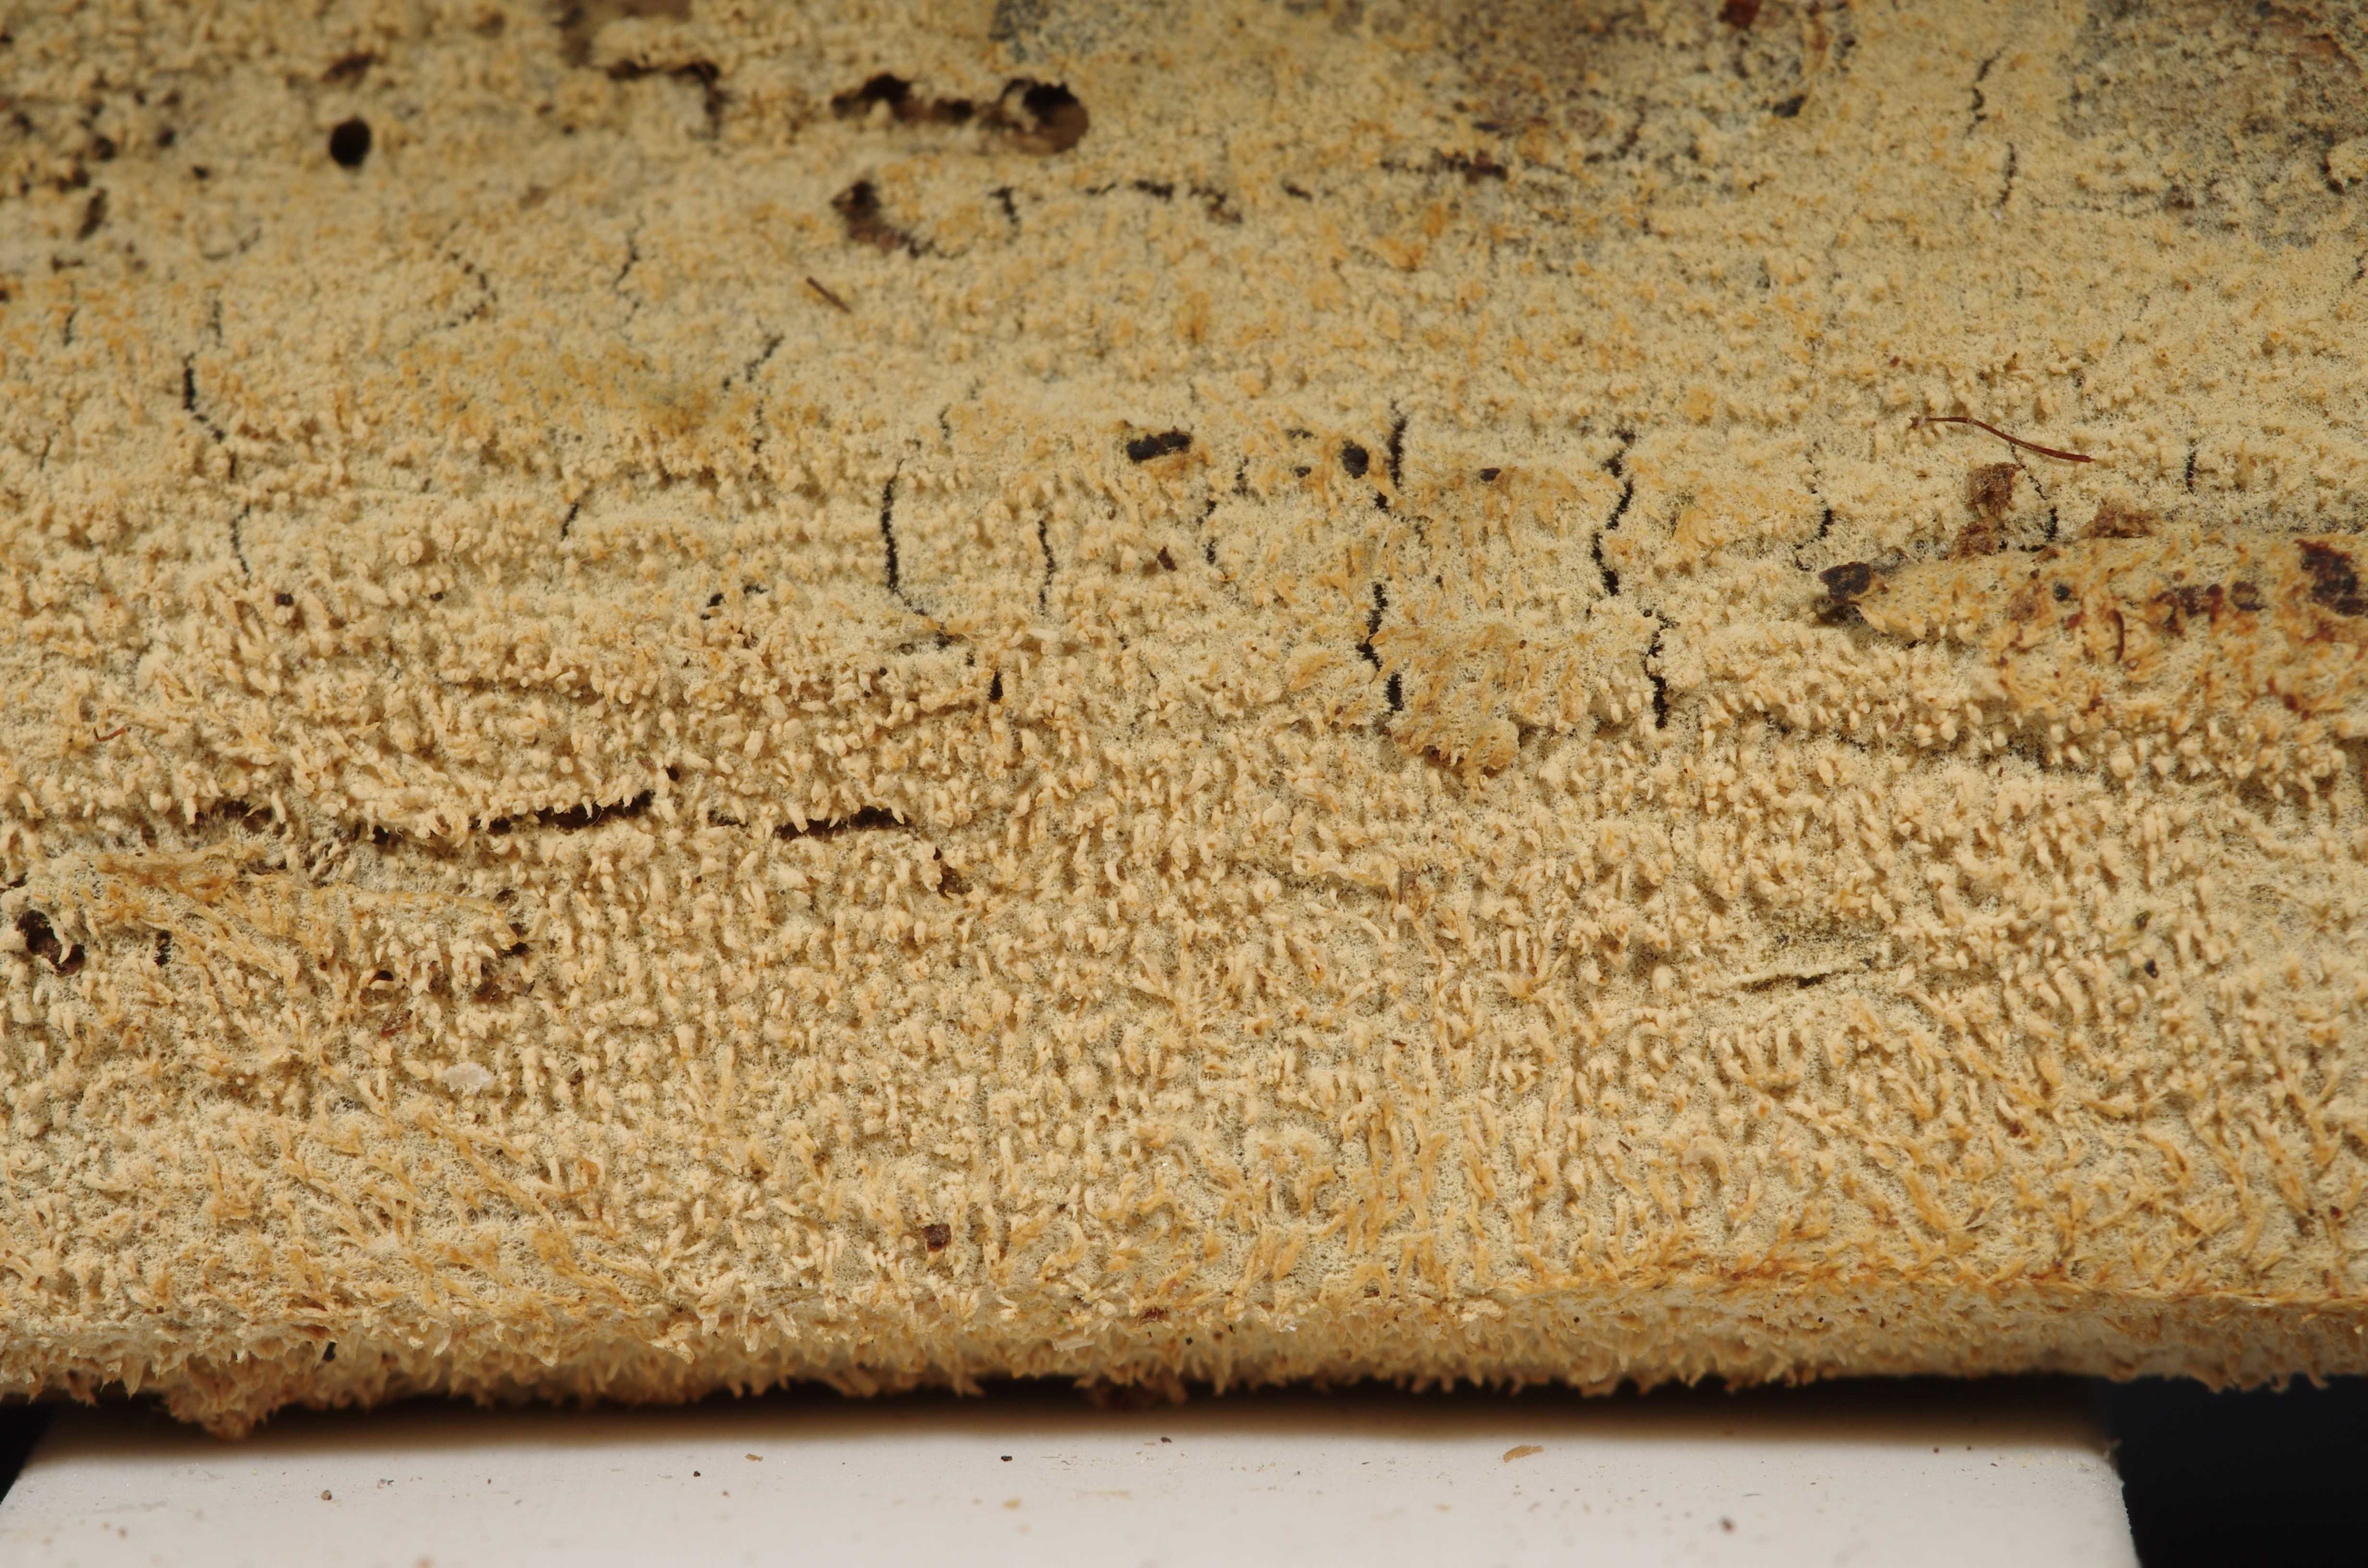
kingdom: Fungi
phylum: Basidiomycota
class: Agaricomycetes
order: Hymenochaetales
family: Hyphodontiaceae
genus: Hyphodontia
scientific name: Hyphodontia curvispora
